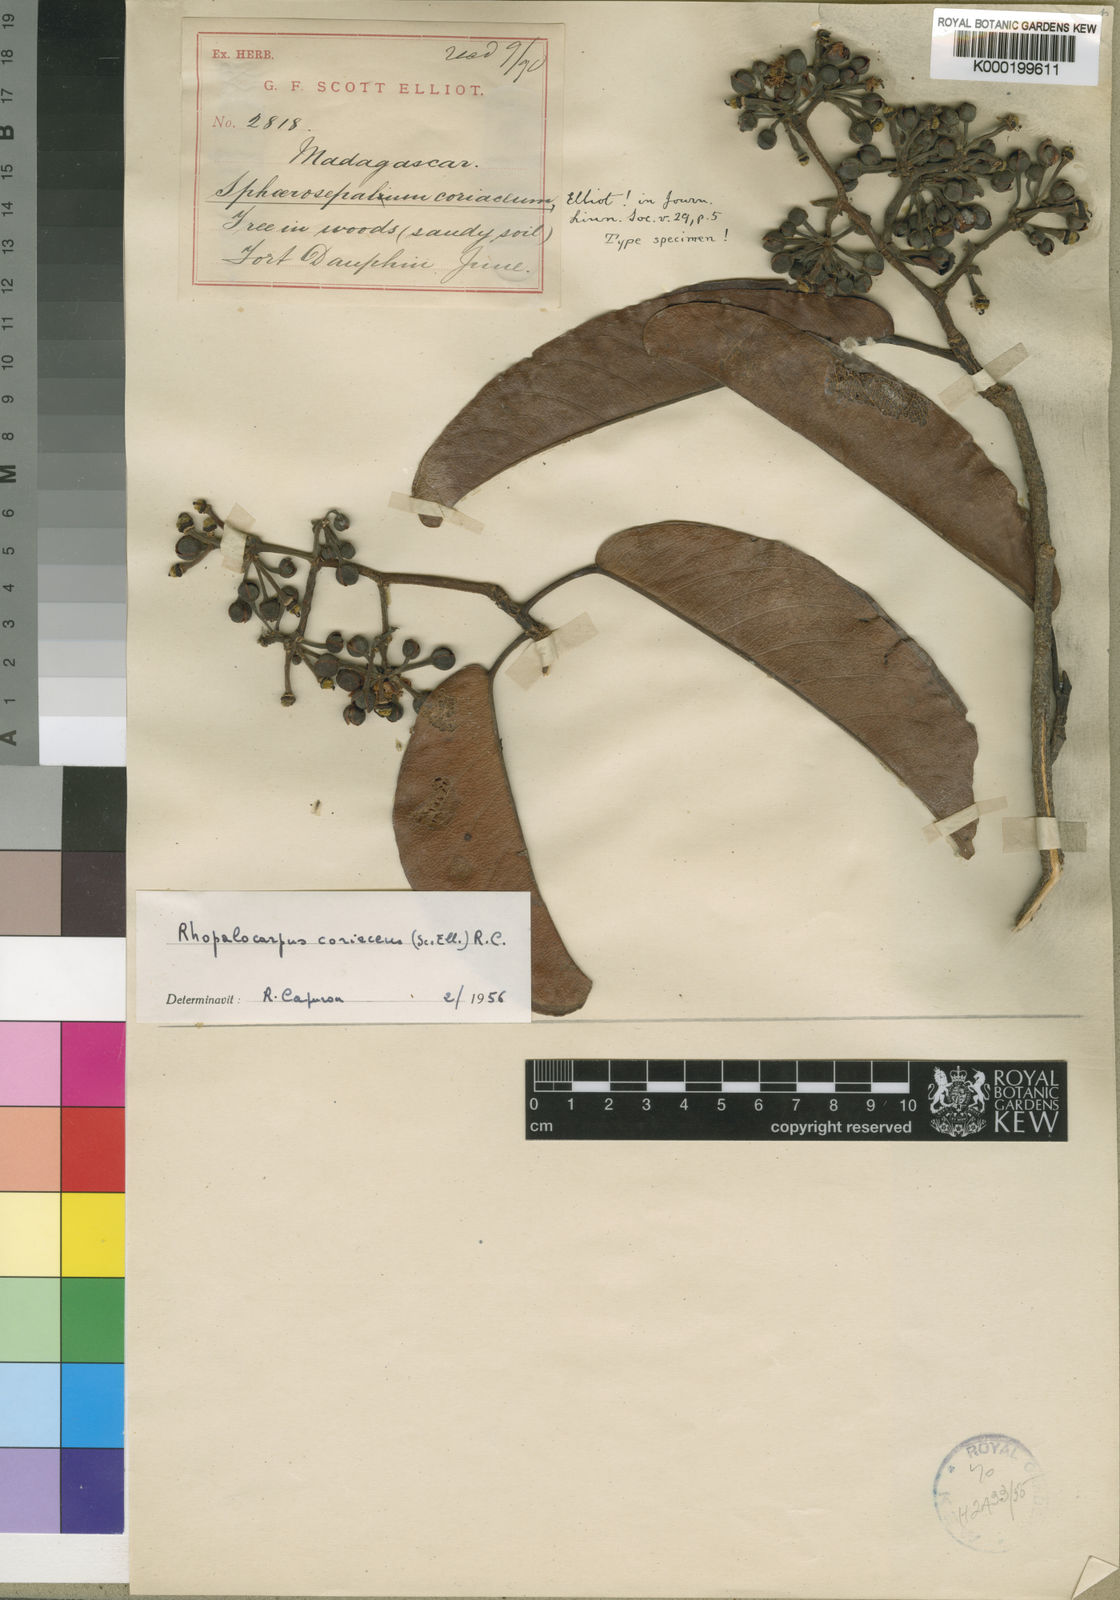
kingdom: Plantae
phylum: Tracheophyta
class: Magnoliopsida
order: Malvales
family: Sphaerosepalaceae
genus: Rhopalocarpus
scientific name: Rhopalocarpus coriaceus
